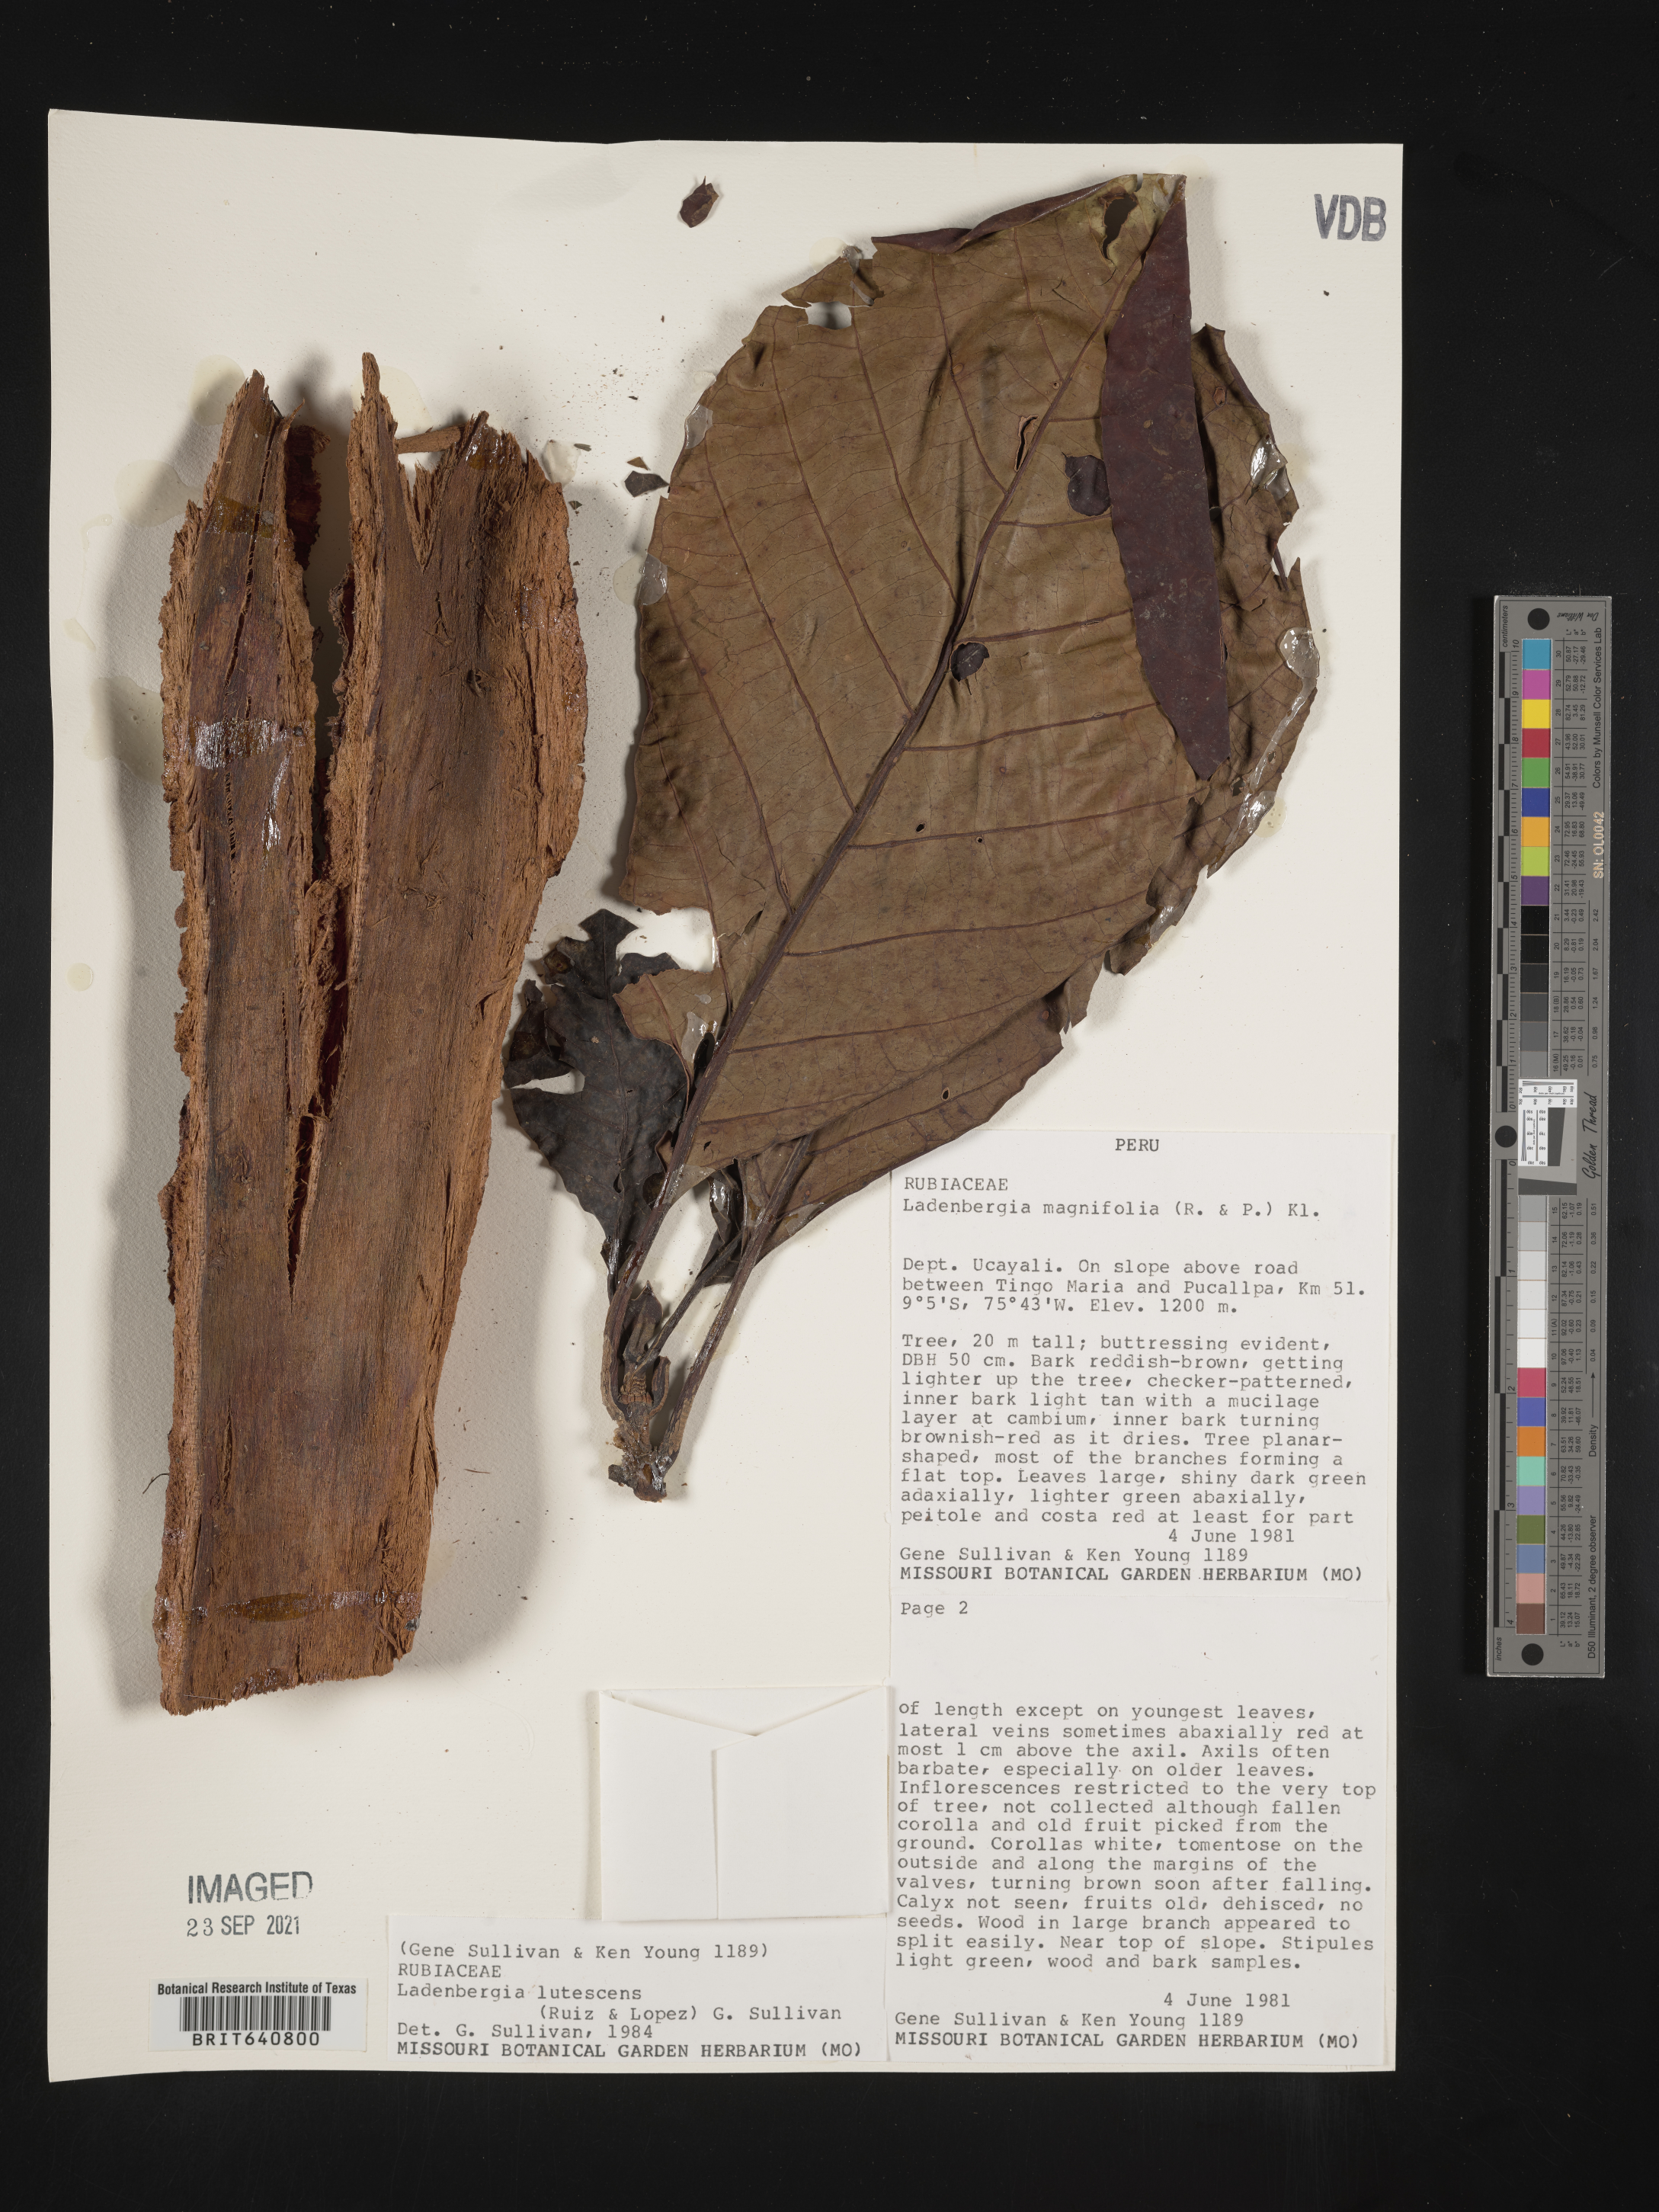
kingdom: Plantae
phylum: Tracheophyta
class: Magnoliopsida
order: Gentianales
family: Rubiaceae
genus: Ladenbergia
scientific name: Ladenbergia
